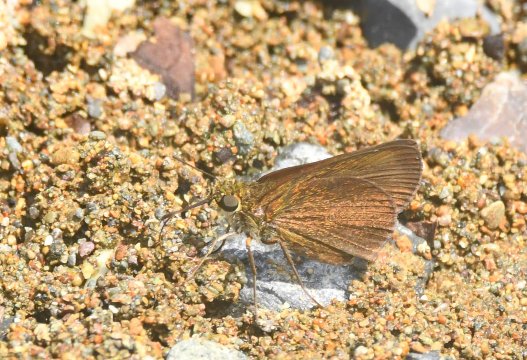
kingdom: Animalia
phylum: Arthropoda
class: Insecta
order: Lepidoptera
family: Hesperiidae
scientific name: Hesperiidae
